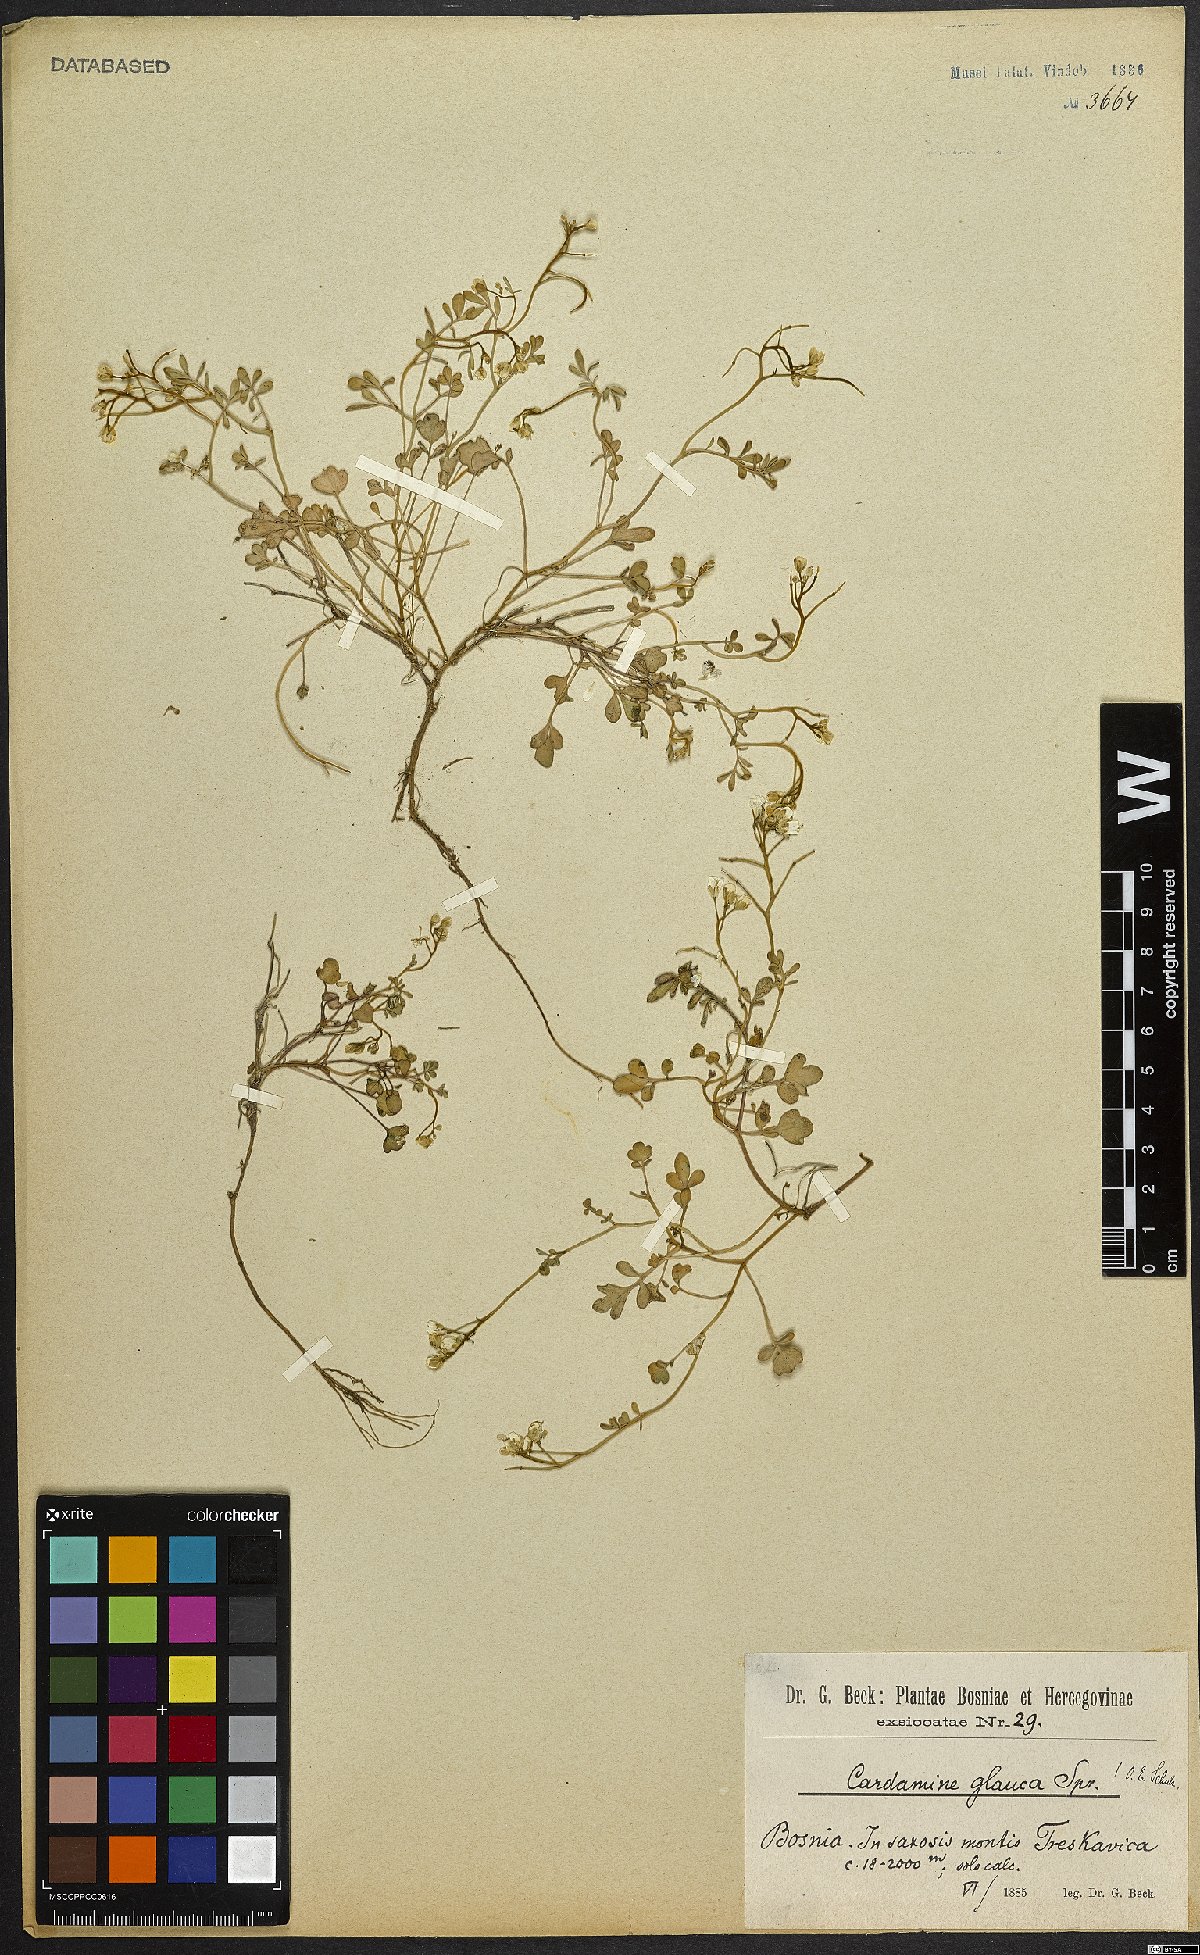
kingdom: Plantae
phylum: Tracheophyta
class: Magnoliopsida
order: Brassicales
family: Brassicaceae
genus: Cardamine
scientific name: Cardamine glauca
